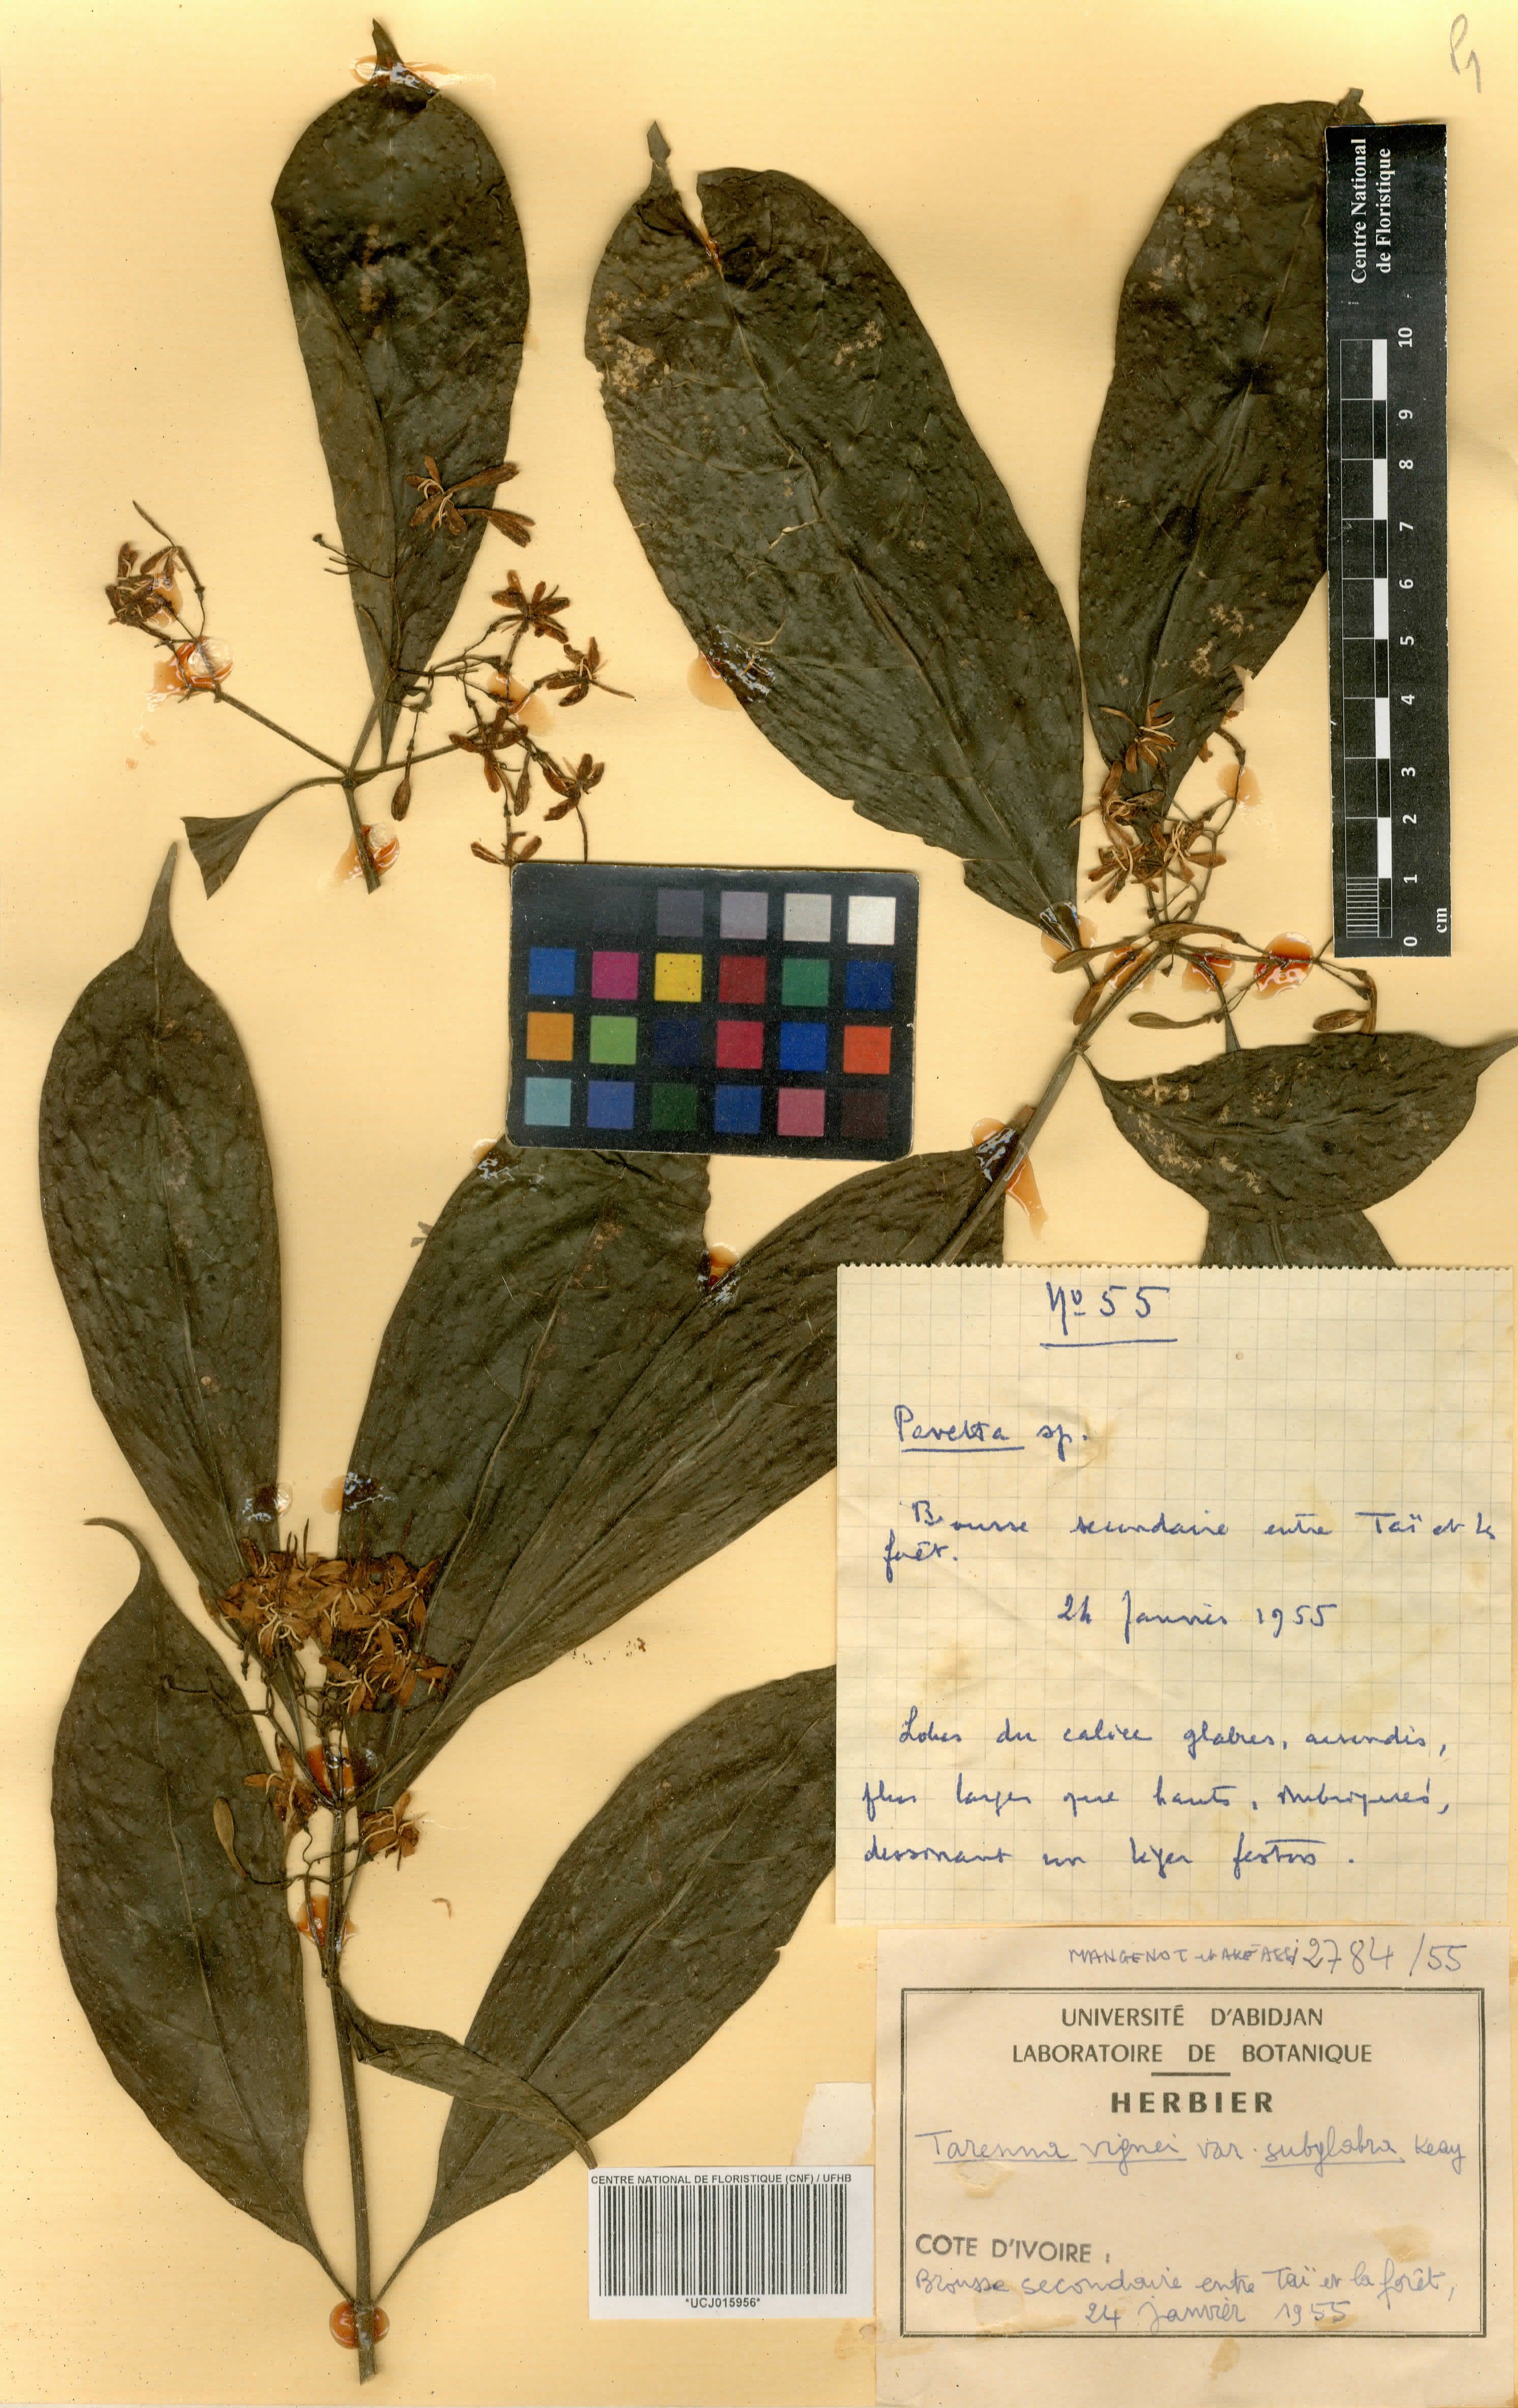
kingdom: Plantae
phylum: Tracheophyta
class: Magnoliopsida
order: Gentianales
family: Rubiaceae
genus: Tarenna
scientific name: Tarenna vignei
